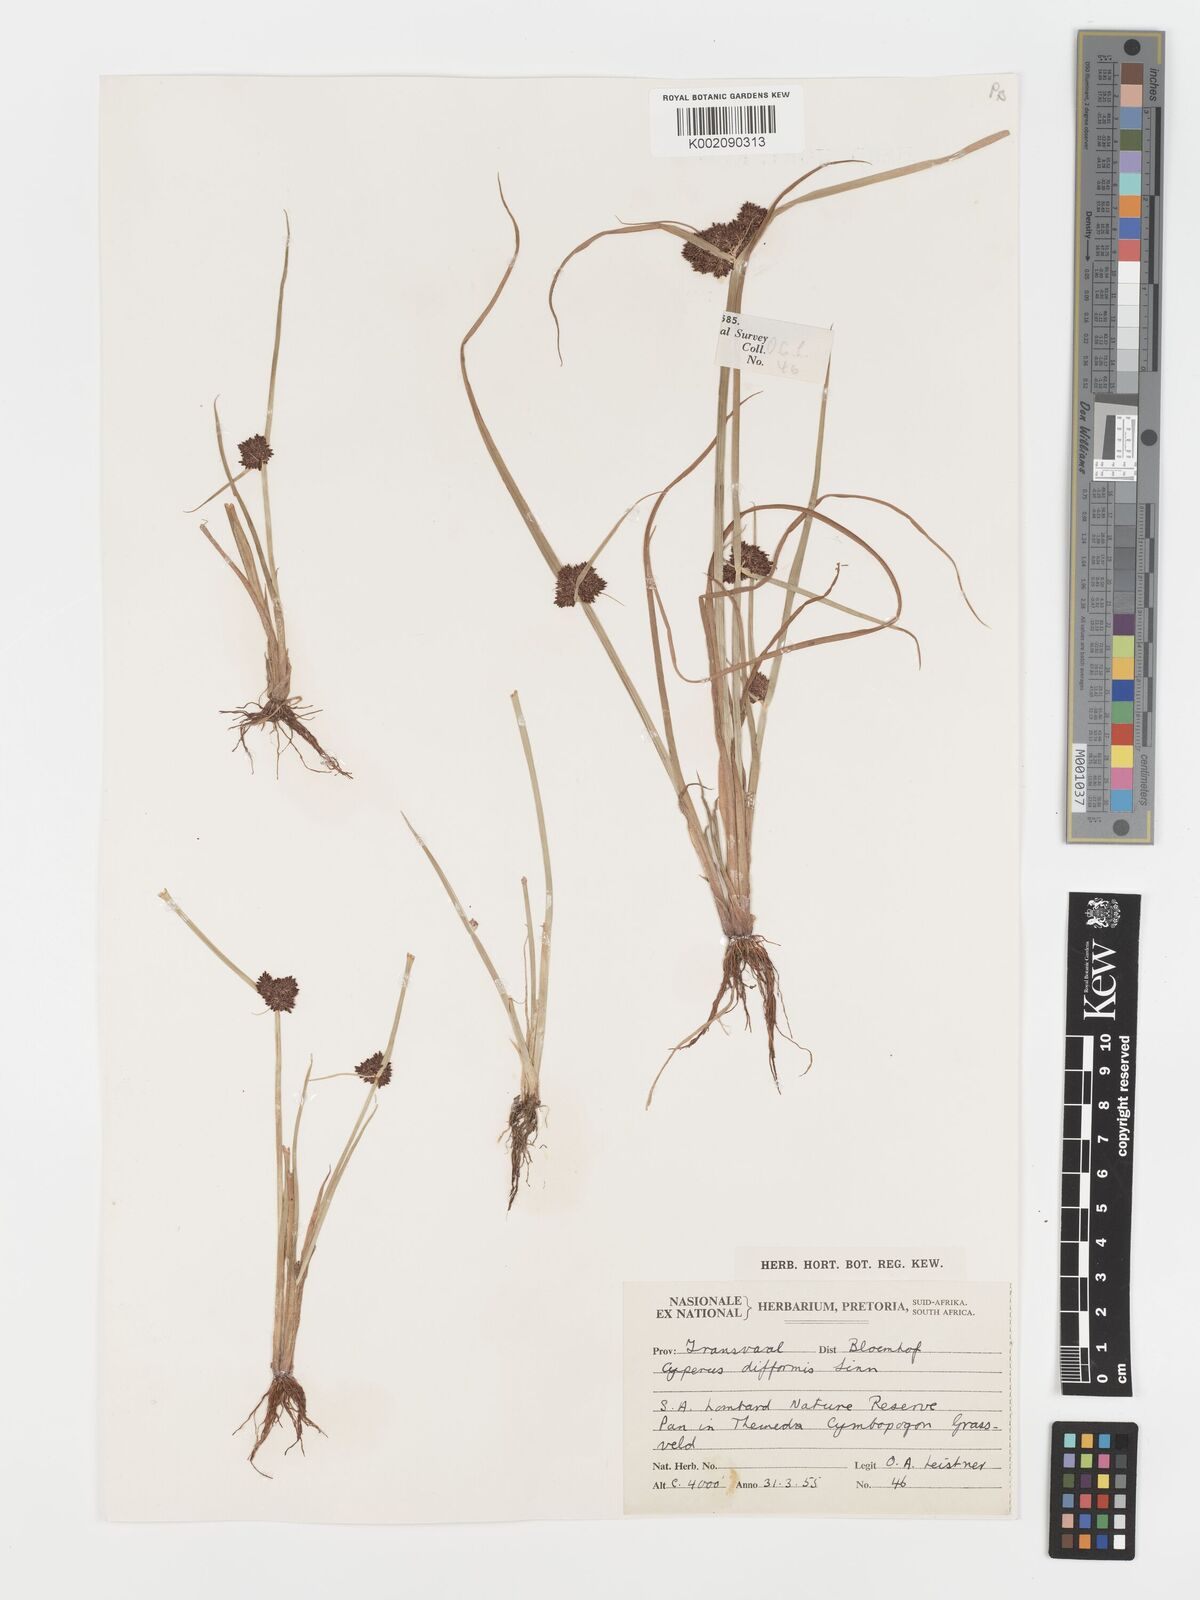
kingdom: Plantae
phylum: Tracheophyta
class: Liliopsida
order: Poales
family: Cyperaceae
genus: Cyperus
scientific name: Cyperus difformis
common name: Variable flatsedge
